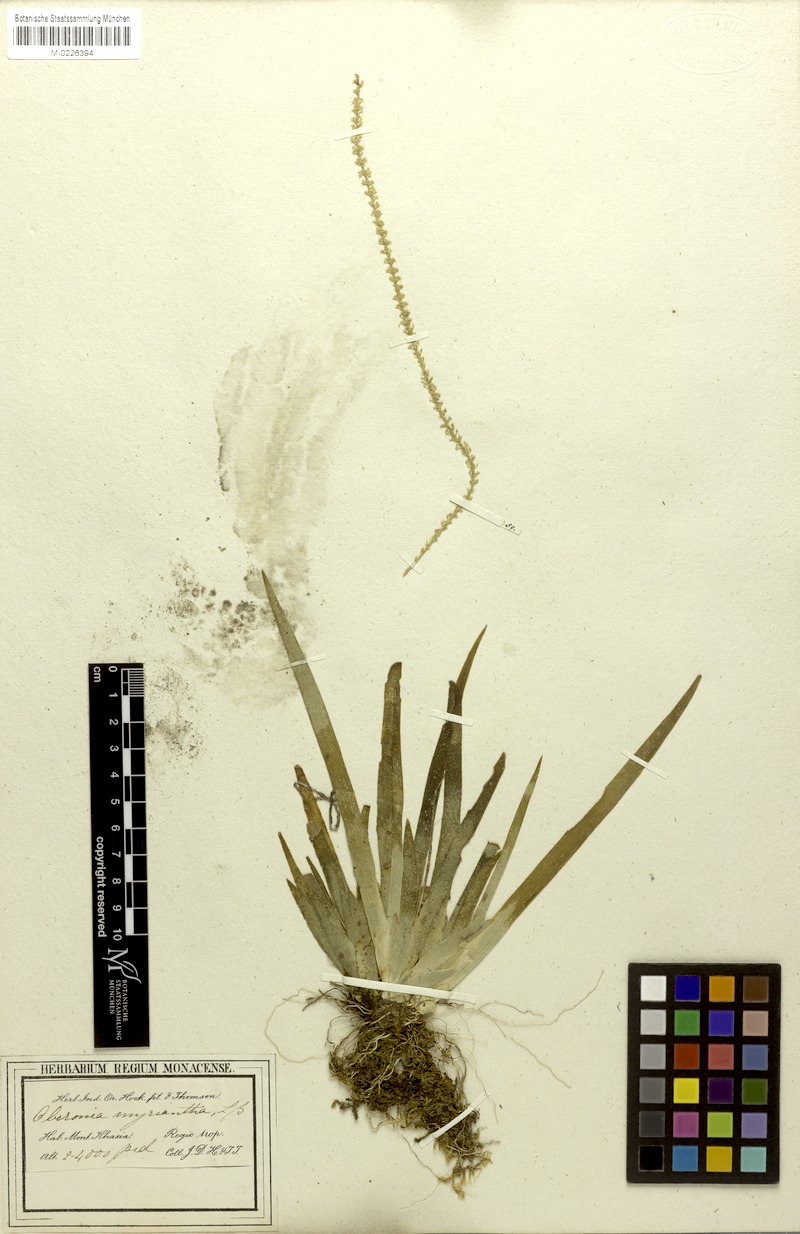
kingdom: Plantae
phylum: Tracheophyta
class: Liliopsida
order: Asparagales
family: Orchidaceae
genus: Oberonia
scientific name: Oberonia acaulis
